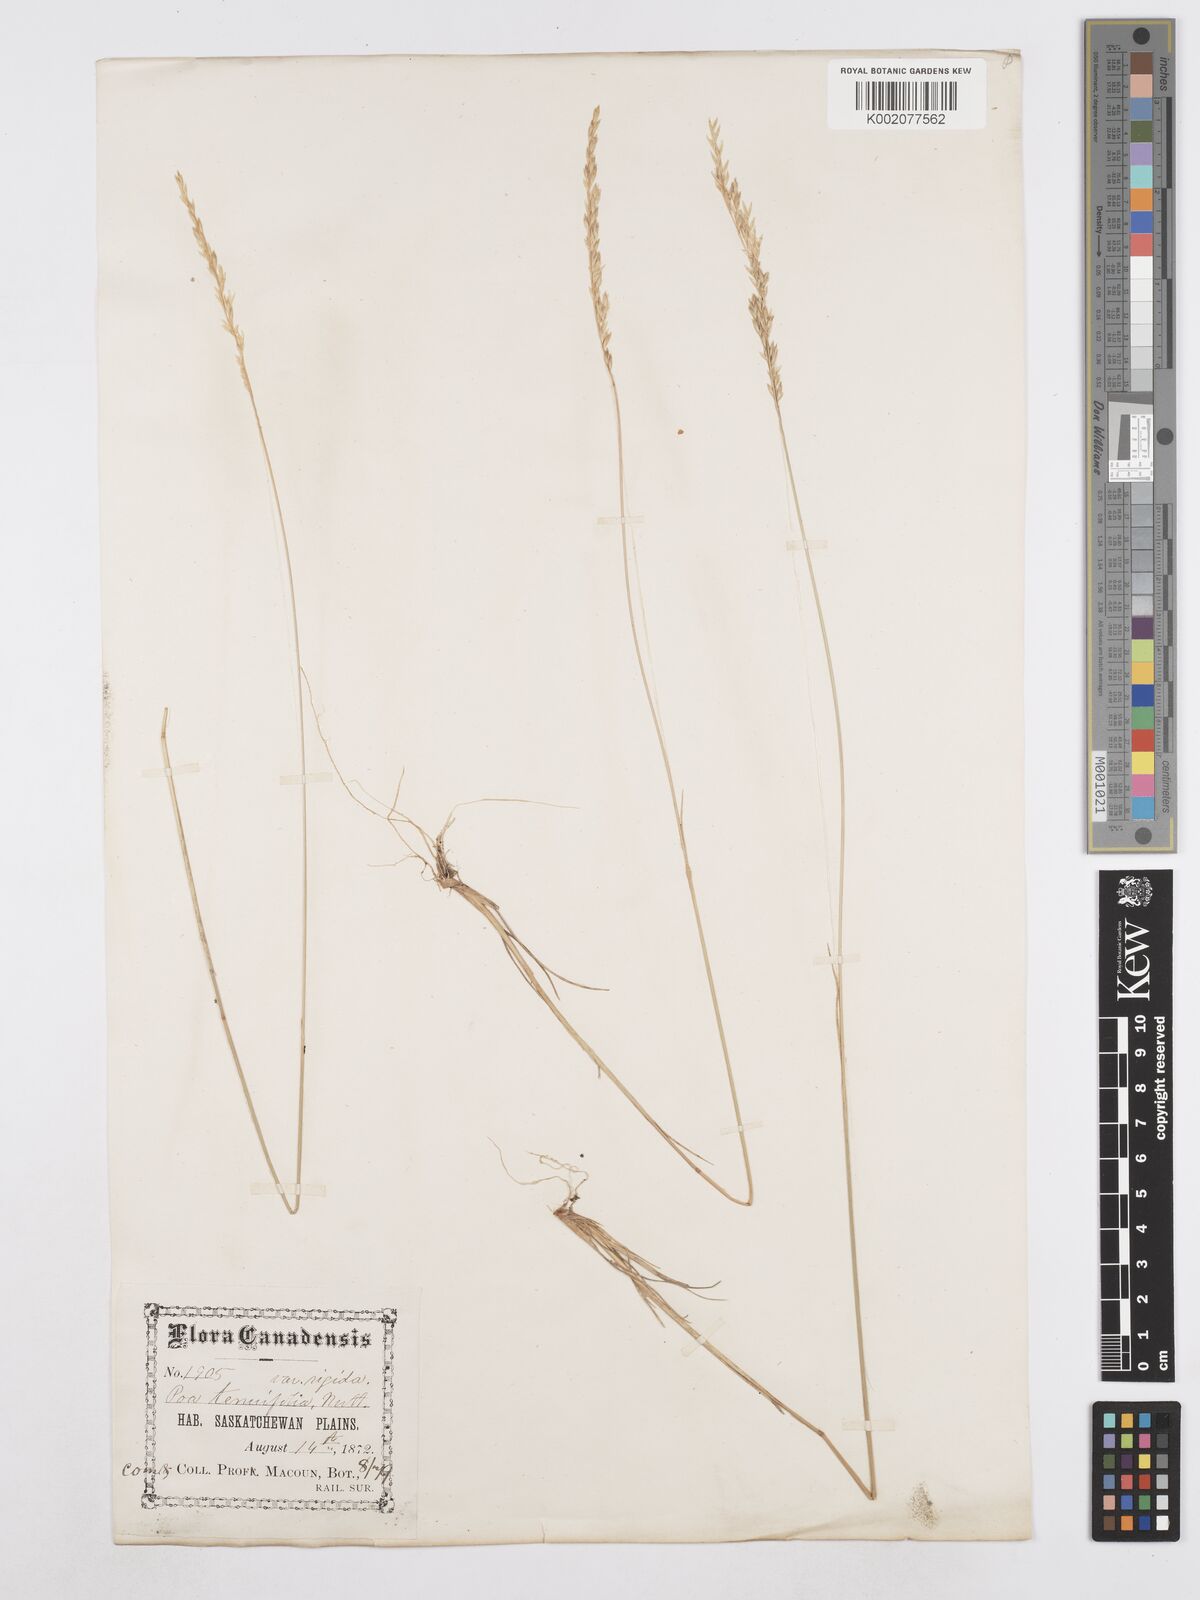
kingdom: Plantae
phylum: Tracheophyta
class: Liliopsida
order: Poales
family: Poaceae
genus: Poa
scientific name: Poa secunda
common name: Sandberg bluegrass
